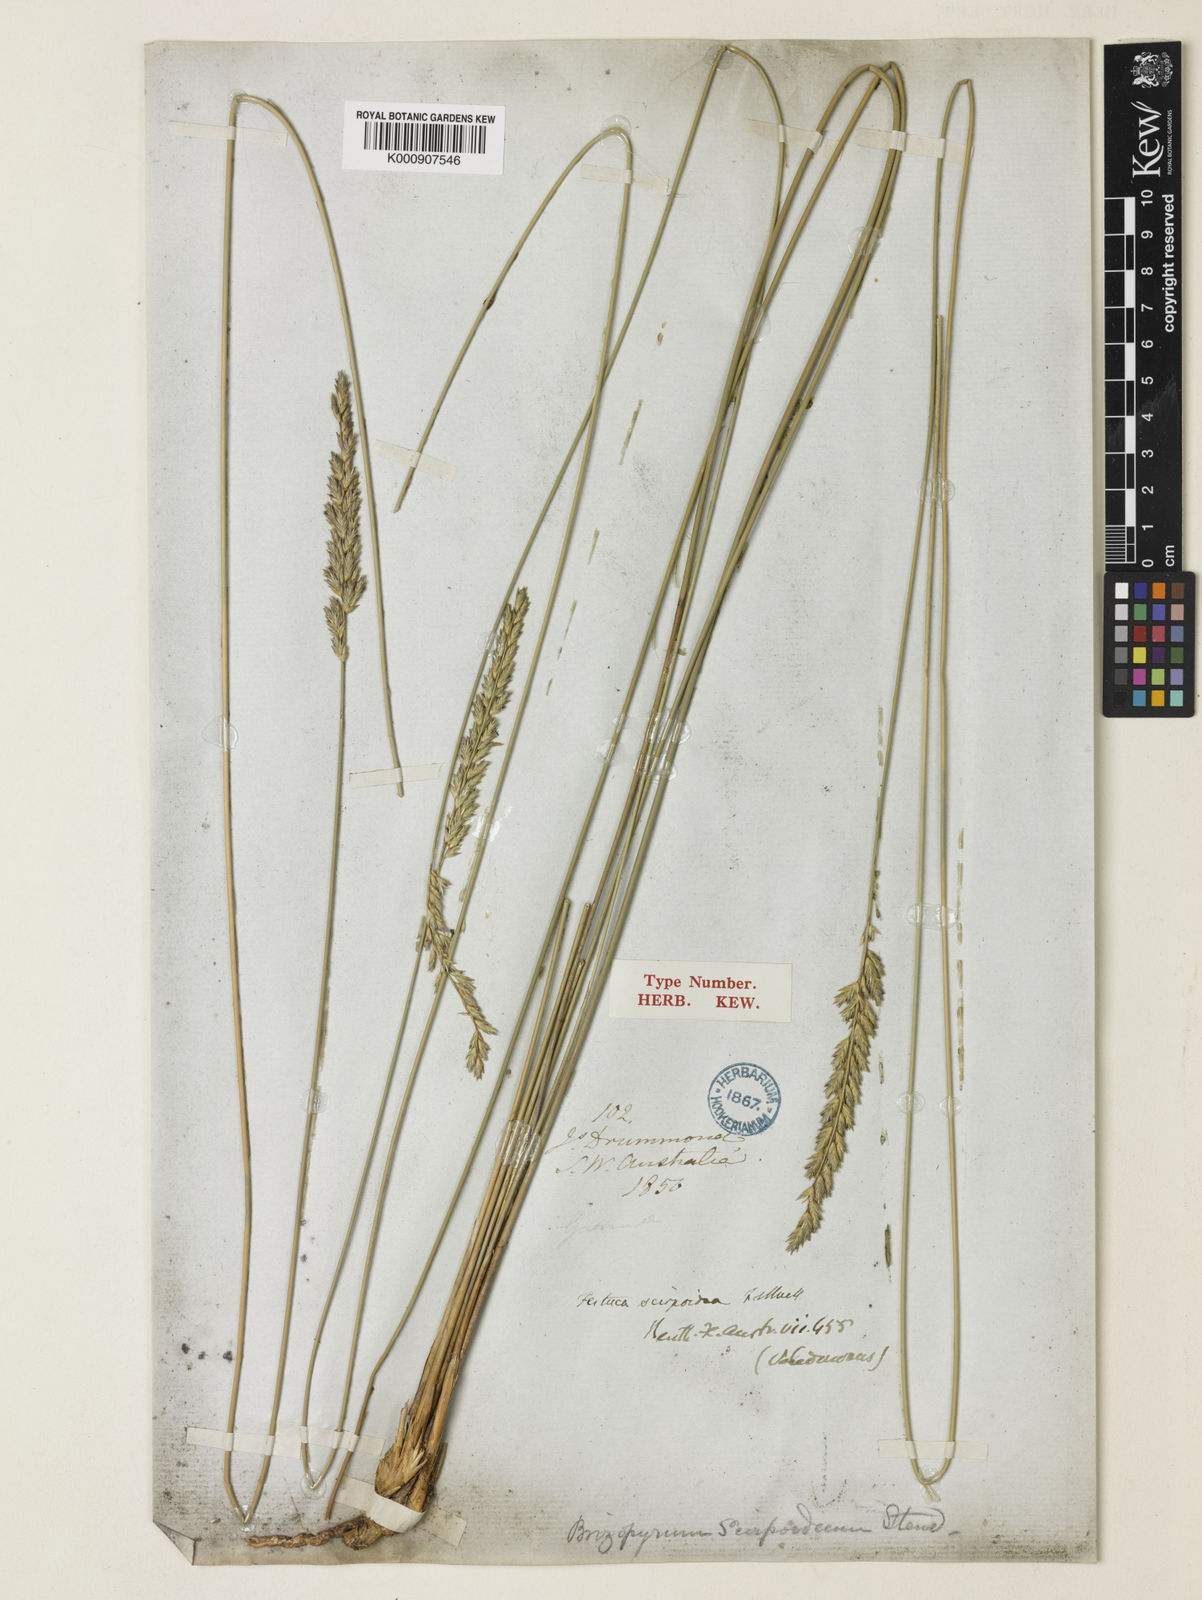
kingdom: Plantae
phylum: Tracheophyta
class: Liliopsida
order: Poales
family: Poaceae
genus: Spartochloa
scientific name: Spartochloa scirpoidea
